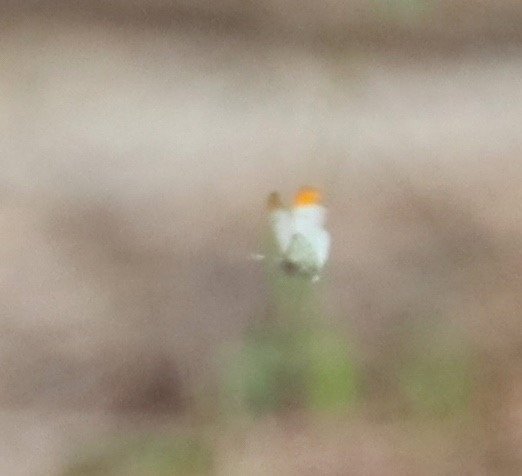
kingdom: Animalia
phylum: Arthropoda
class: Insecta
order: Lepidoptera
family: Pieridae
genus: Anthocharis
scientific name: Anthocharis midea
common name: Falcate Orangetip
